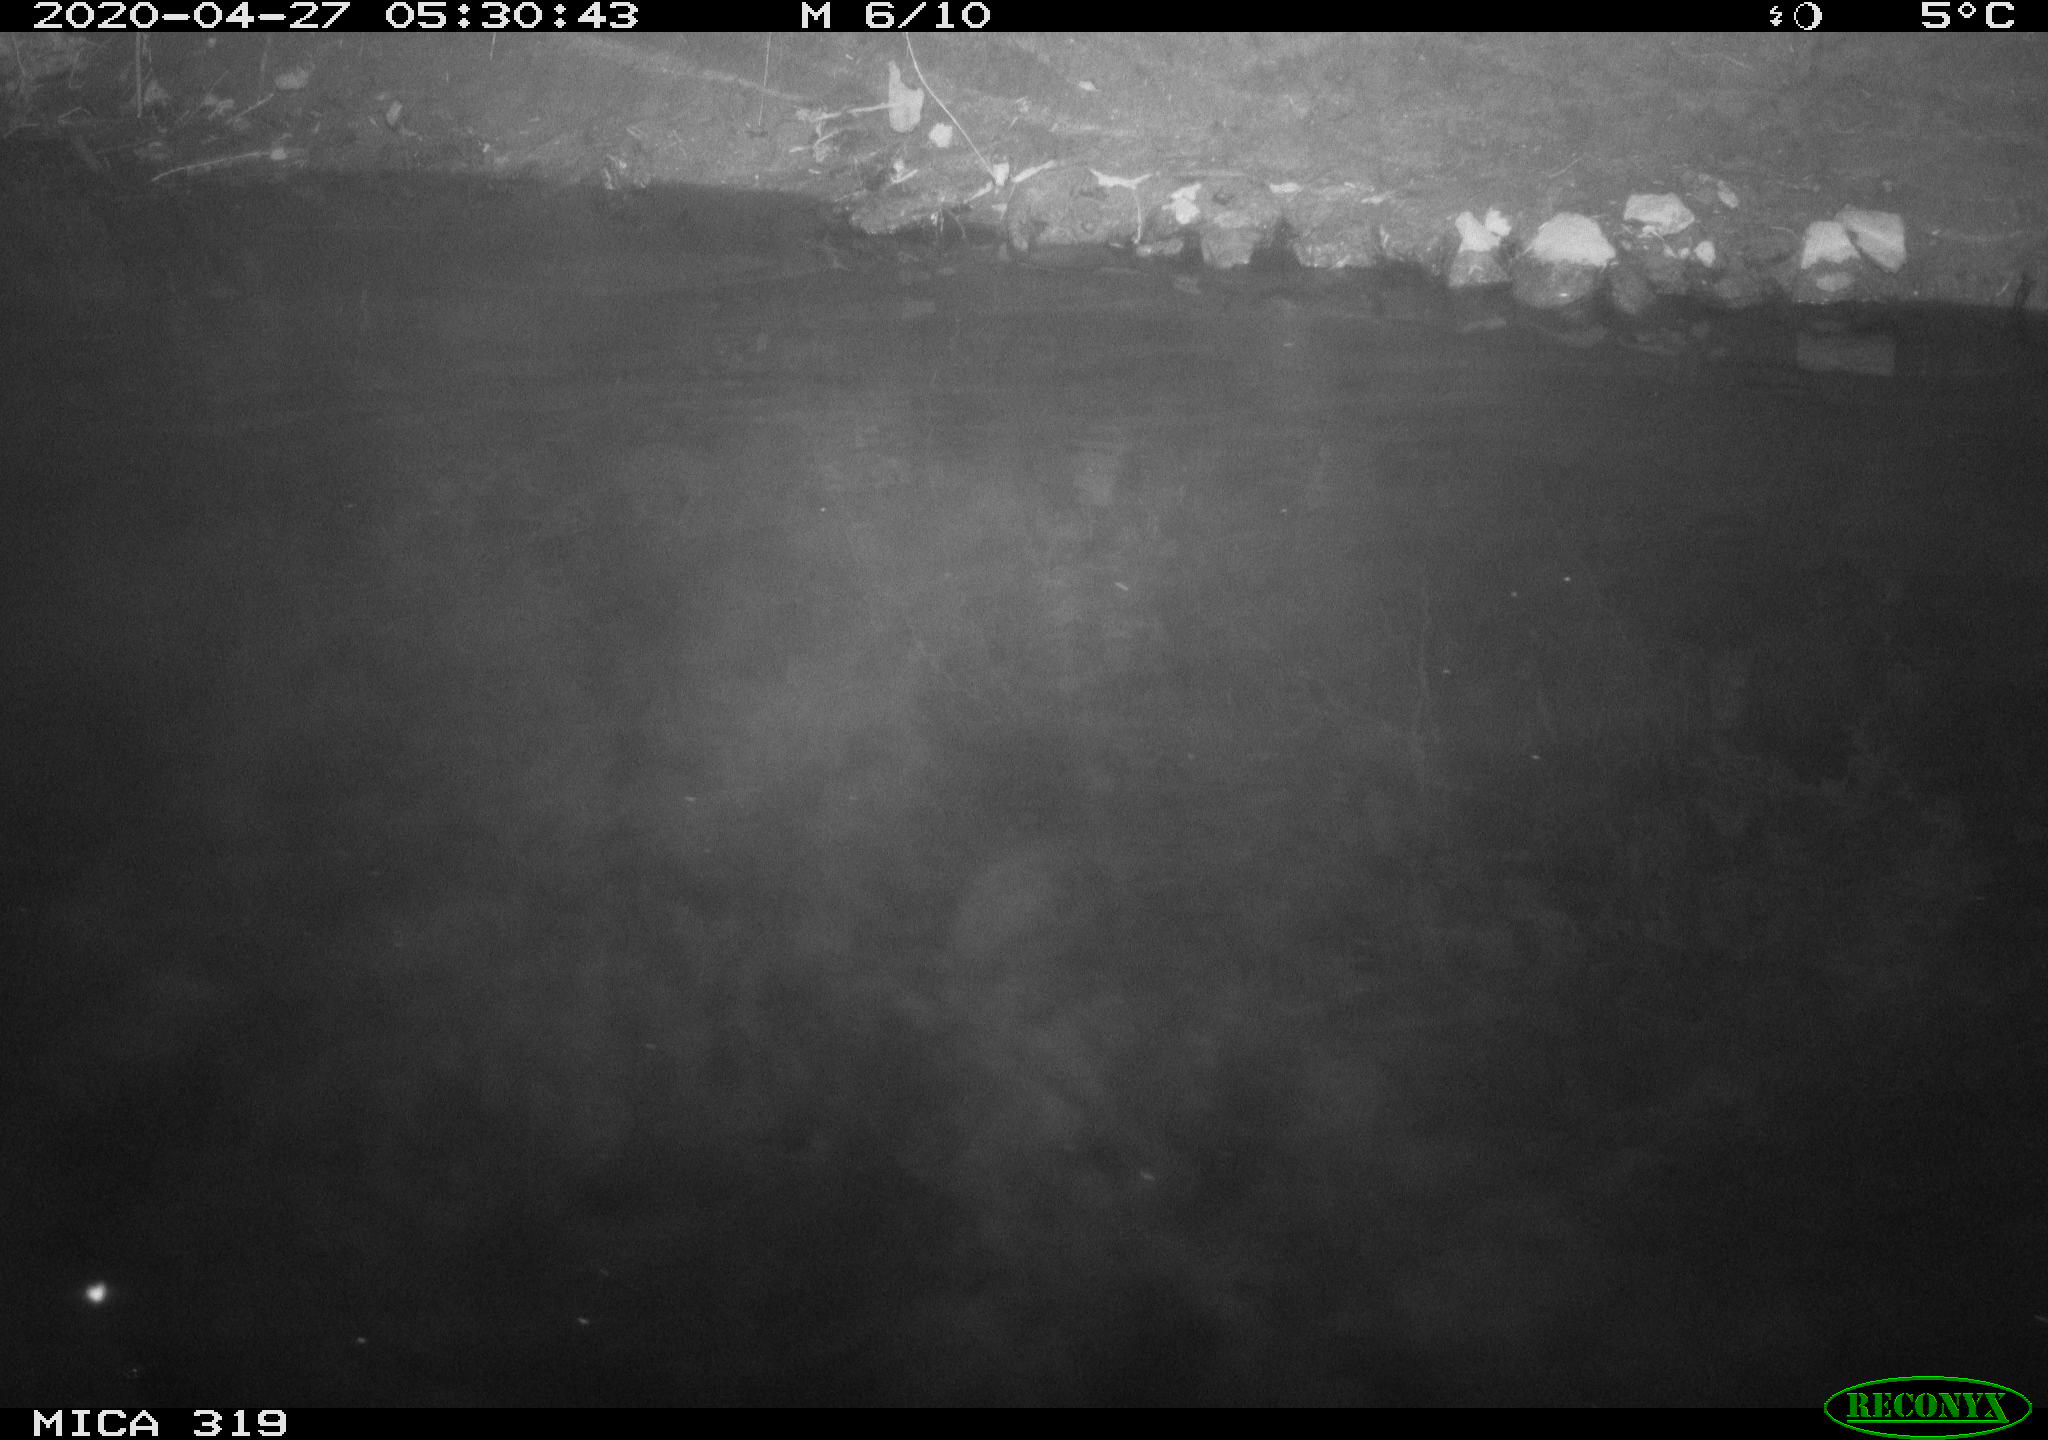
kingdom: Animalia
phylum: Chordata
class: Aves
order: Anseriformes
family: Anatidae
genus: Anas
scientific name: Anas platyrhynchos
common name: Mallard
